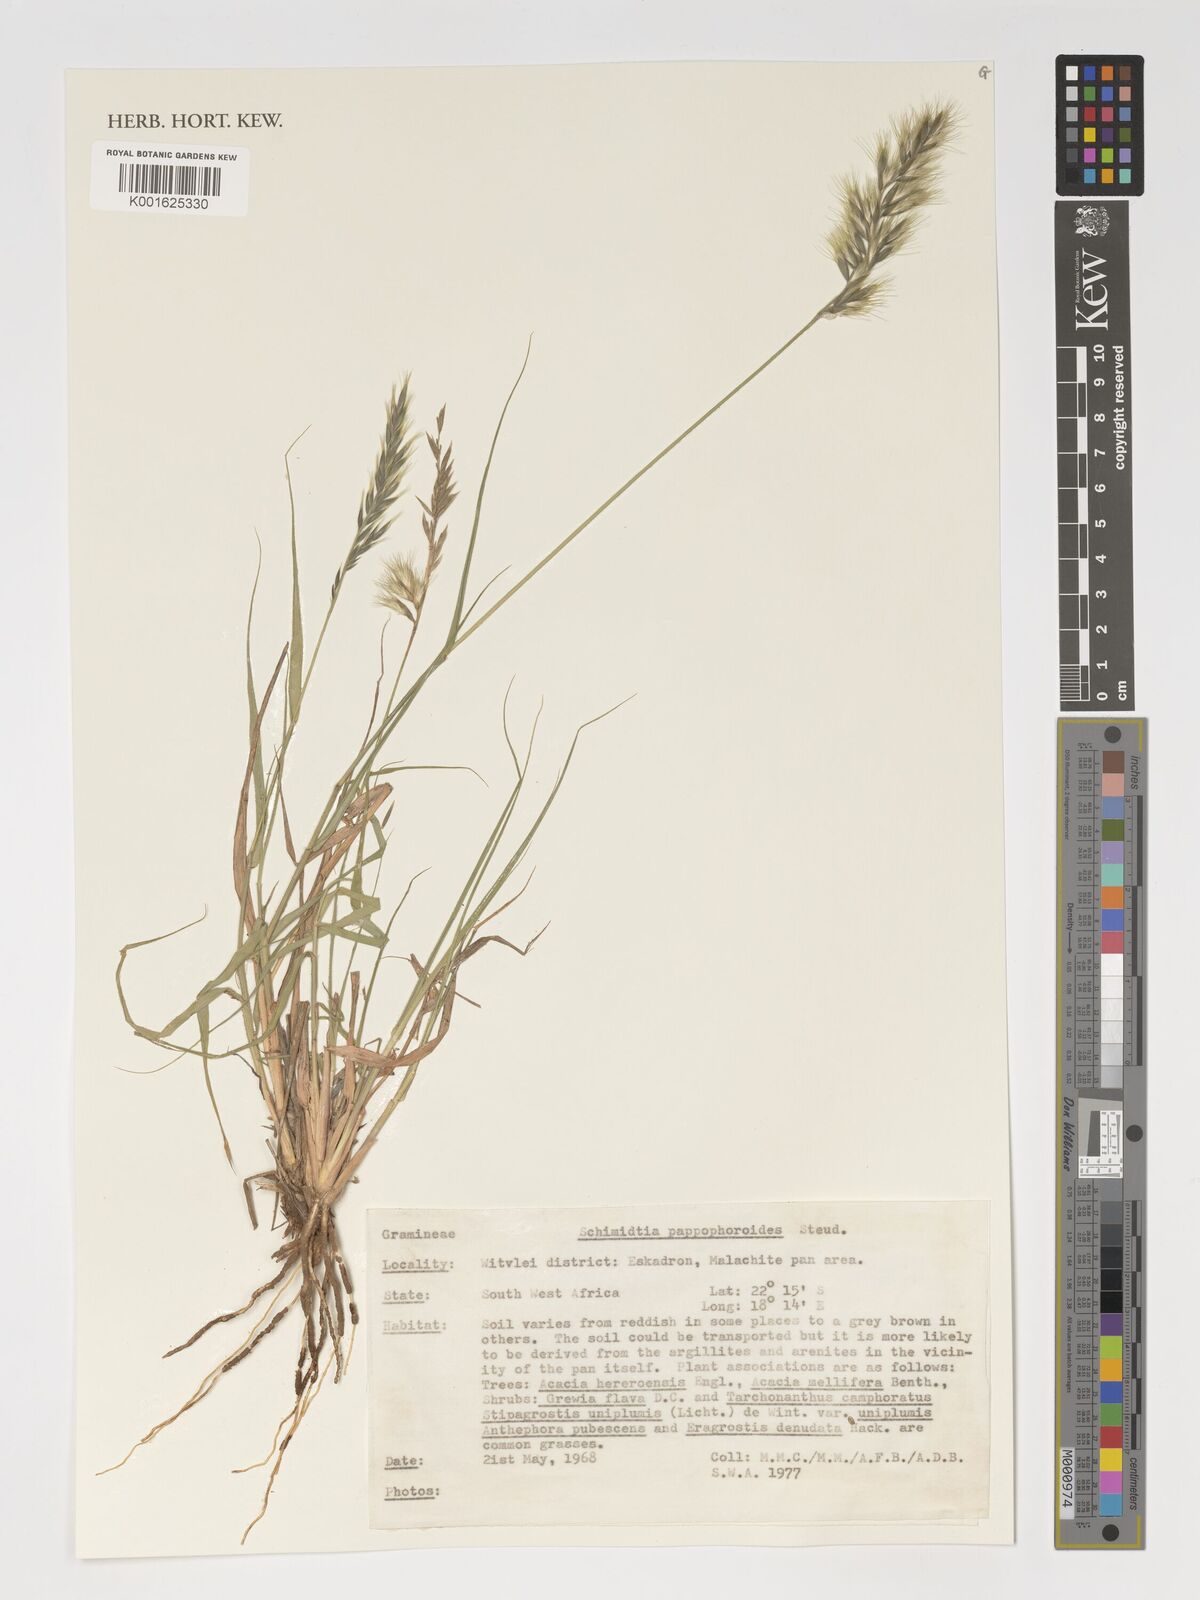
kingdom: Plantae
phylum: Tracheophyta
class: Liliopsida
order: Poales
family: Poaceae
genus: Schmidtia
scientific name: Schmidtia pappophoroides
